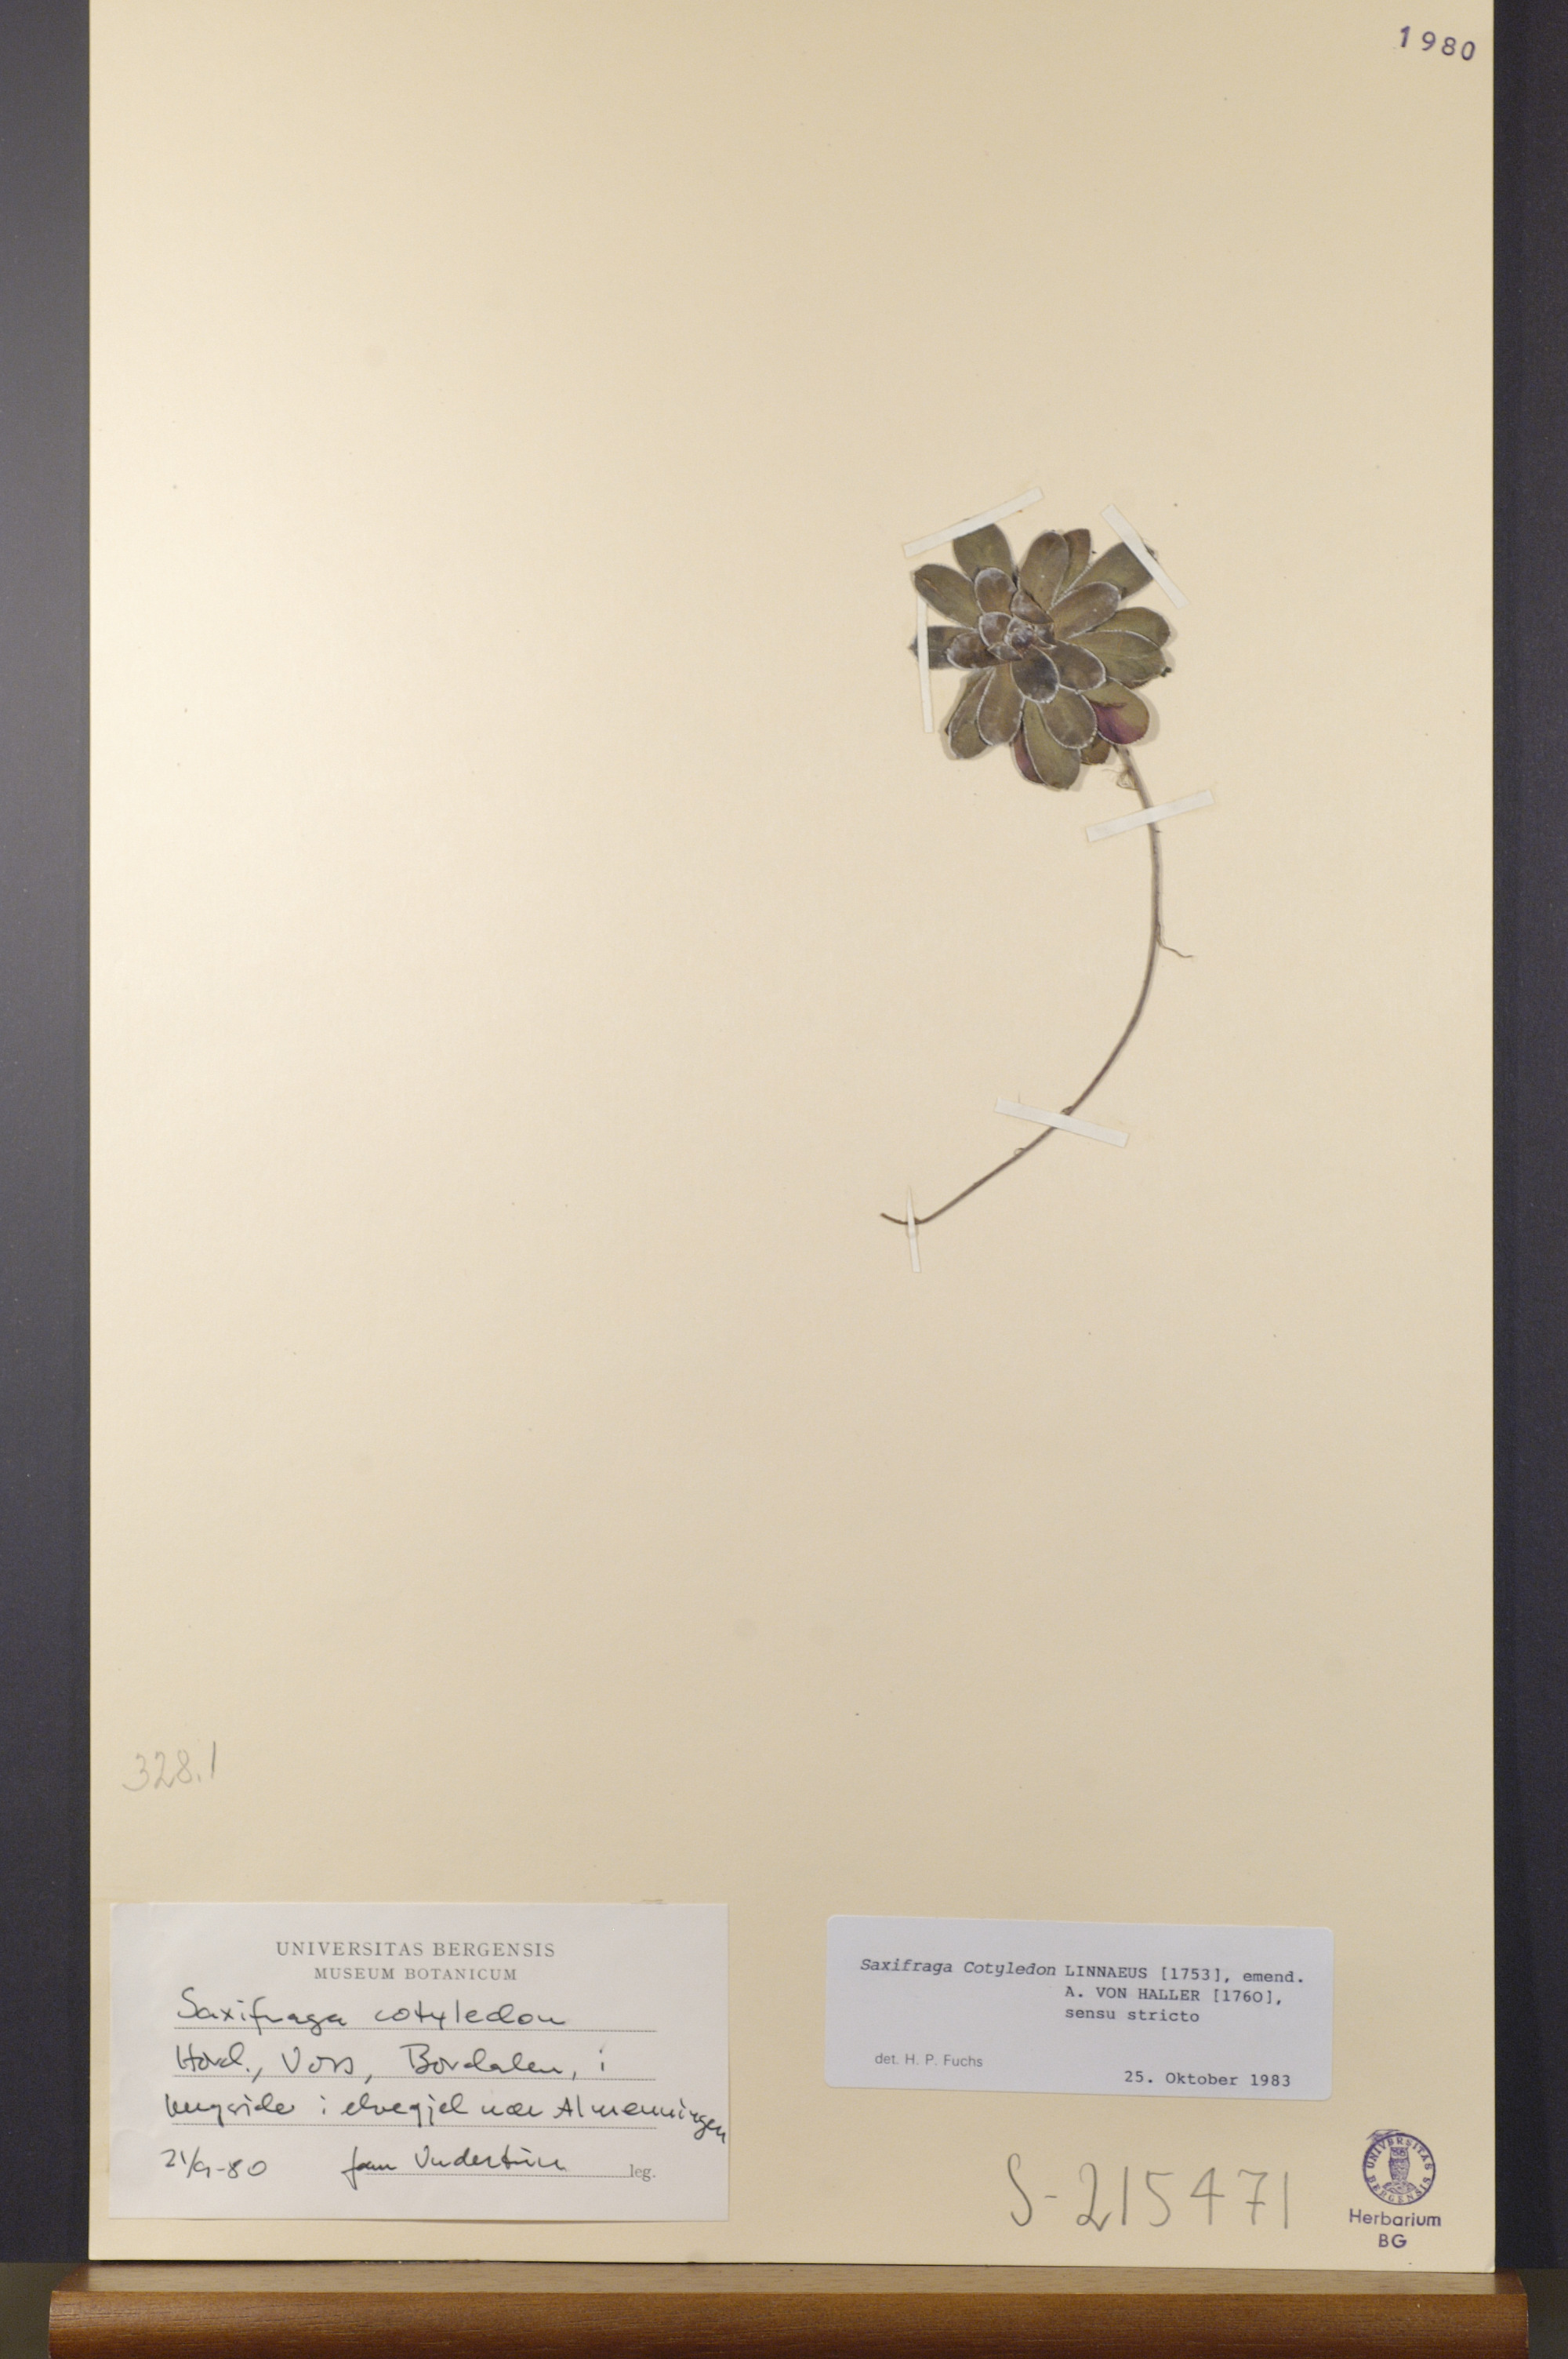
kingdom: Plantae
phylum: Tracheophyta
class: Magnoliopsida
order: Saxifragales
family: Saxifragaceae
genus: Saxifraga
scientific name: Saxifraga cotyledon
